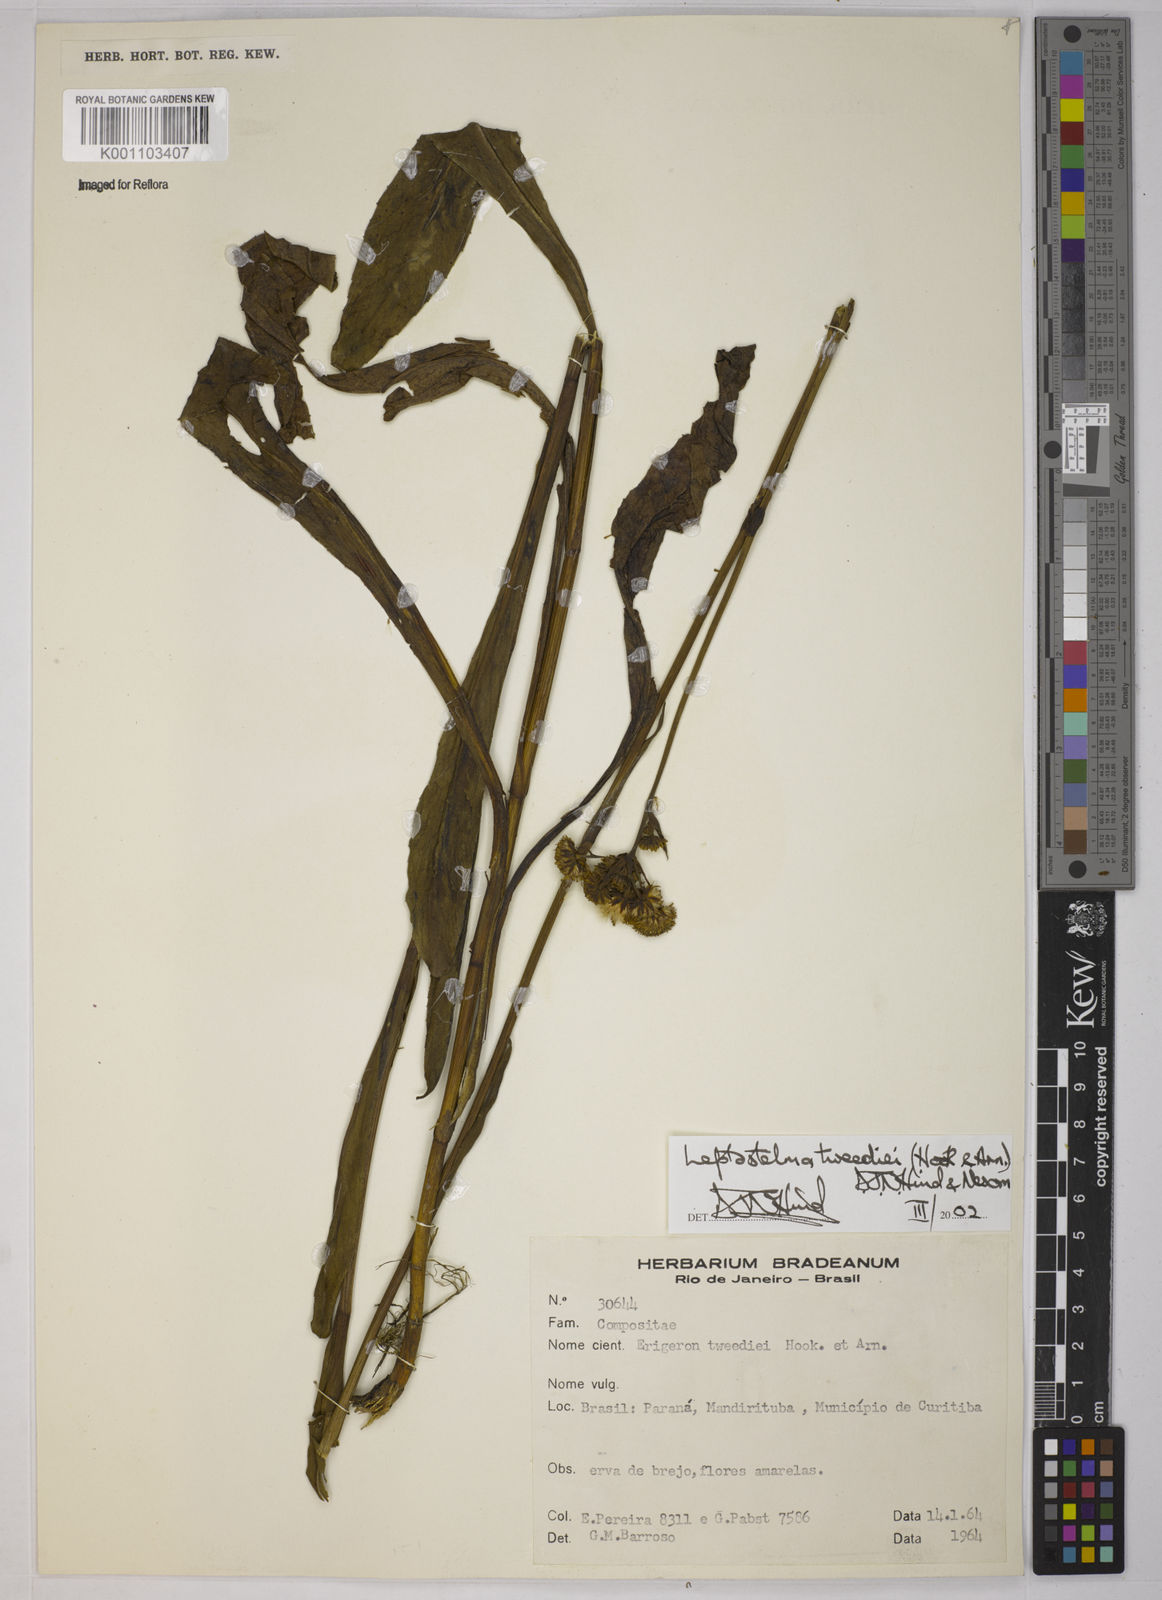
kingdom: Plantae
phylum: Tracheophyta
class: Magnoliopsida
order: Asterales
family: Asteraceae
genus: Leptostelma
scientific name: Leptostelma tweediei
